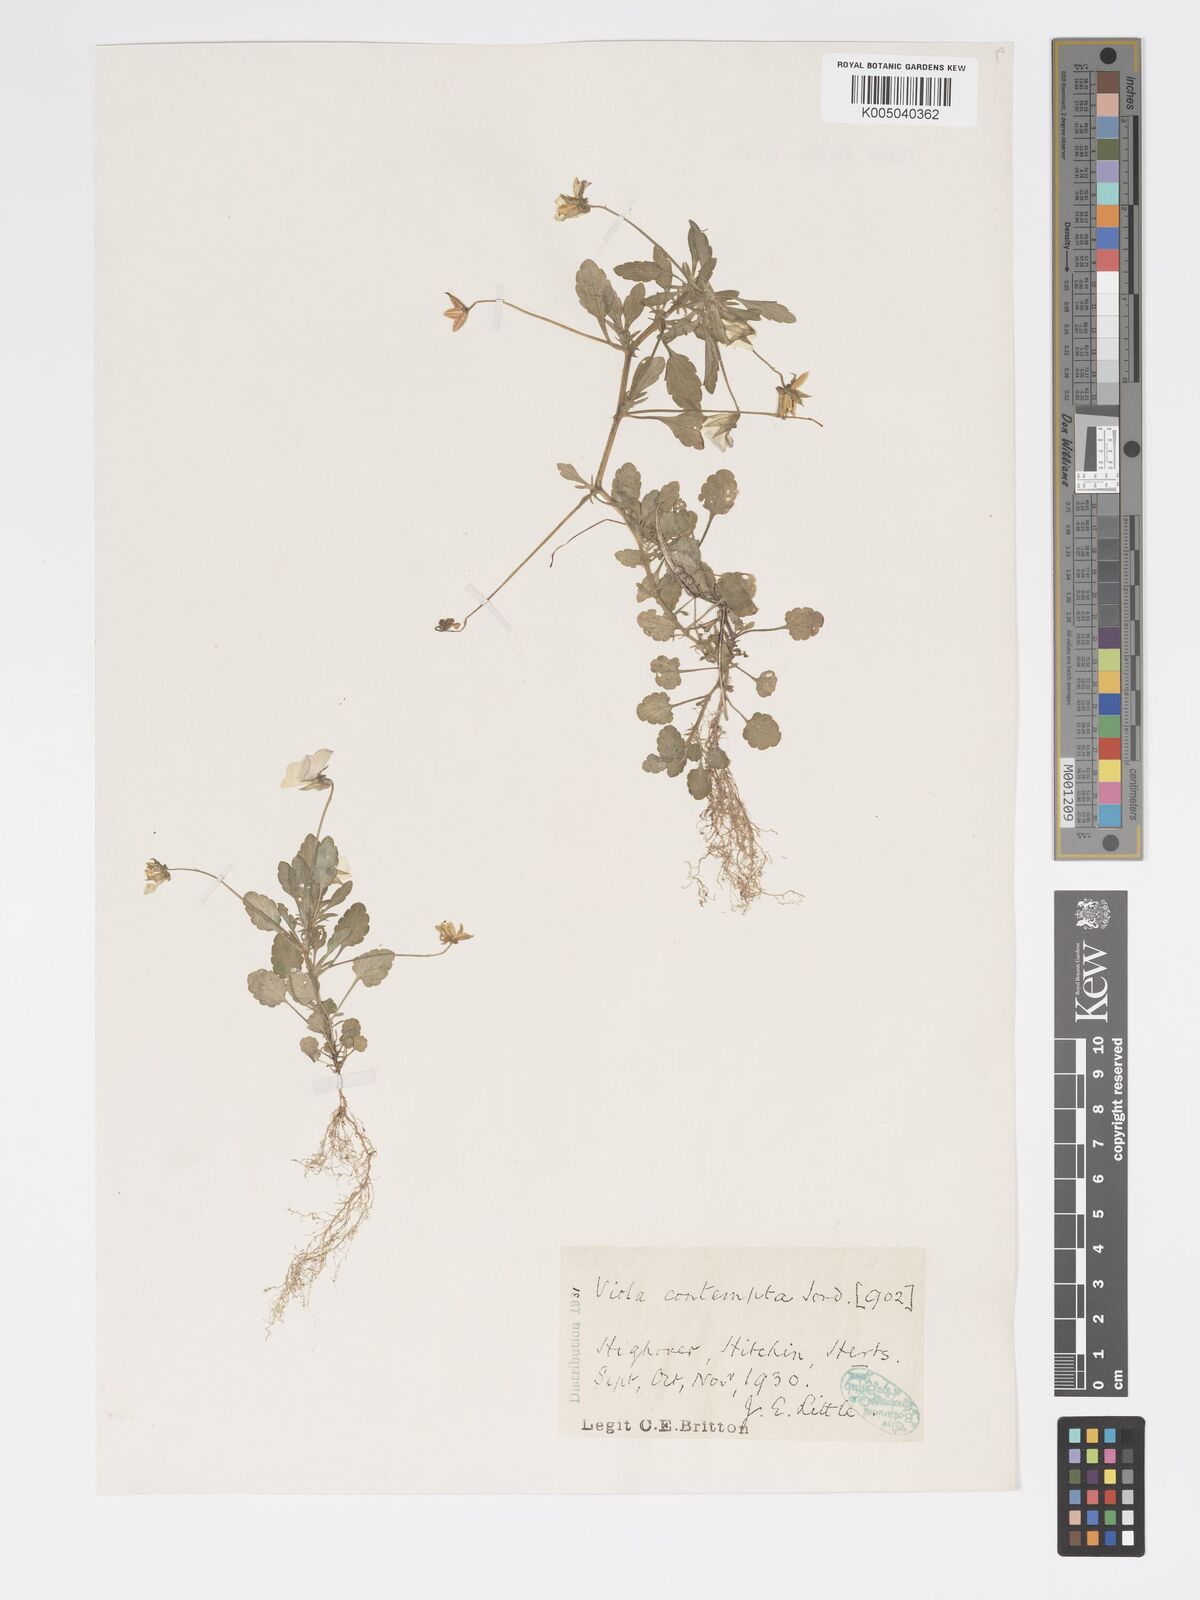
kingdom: Plantae
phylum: Tracheophyta
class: Magnoliopsida
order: Malpighiales
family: Violaceae
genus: Viola
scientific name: Viola arvensis
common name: Field pansy
